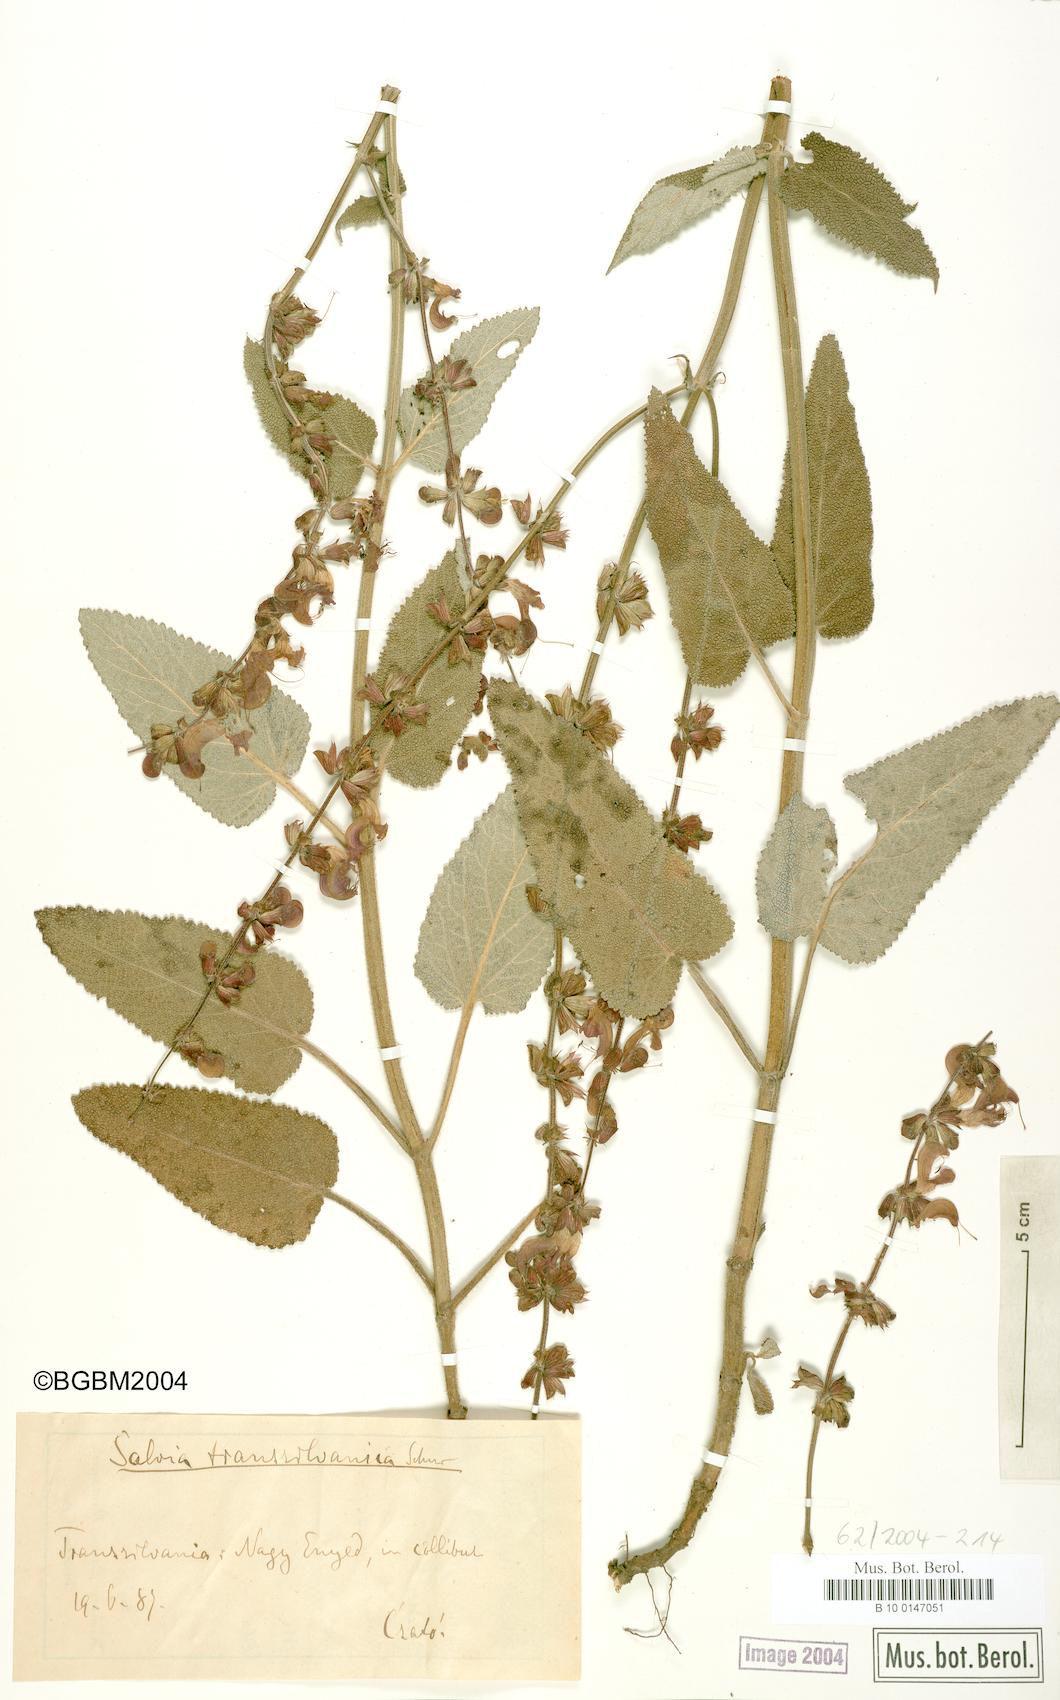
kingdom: Plantae
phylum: Tracheophyta
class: Magnoliopsida
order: Lamiales
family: Lamiaceae
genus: Salvia
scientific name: Salvia transsylvanica
